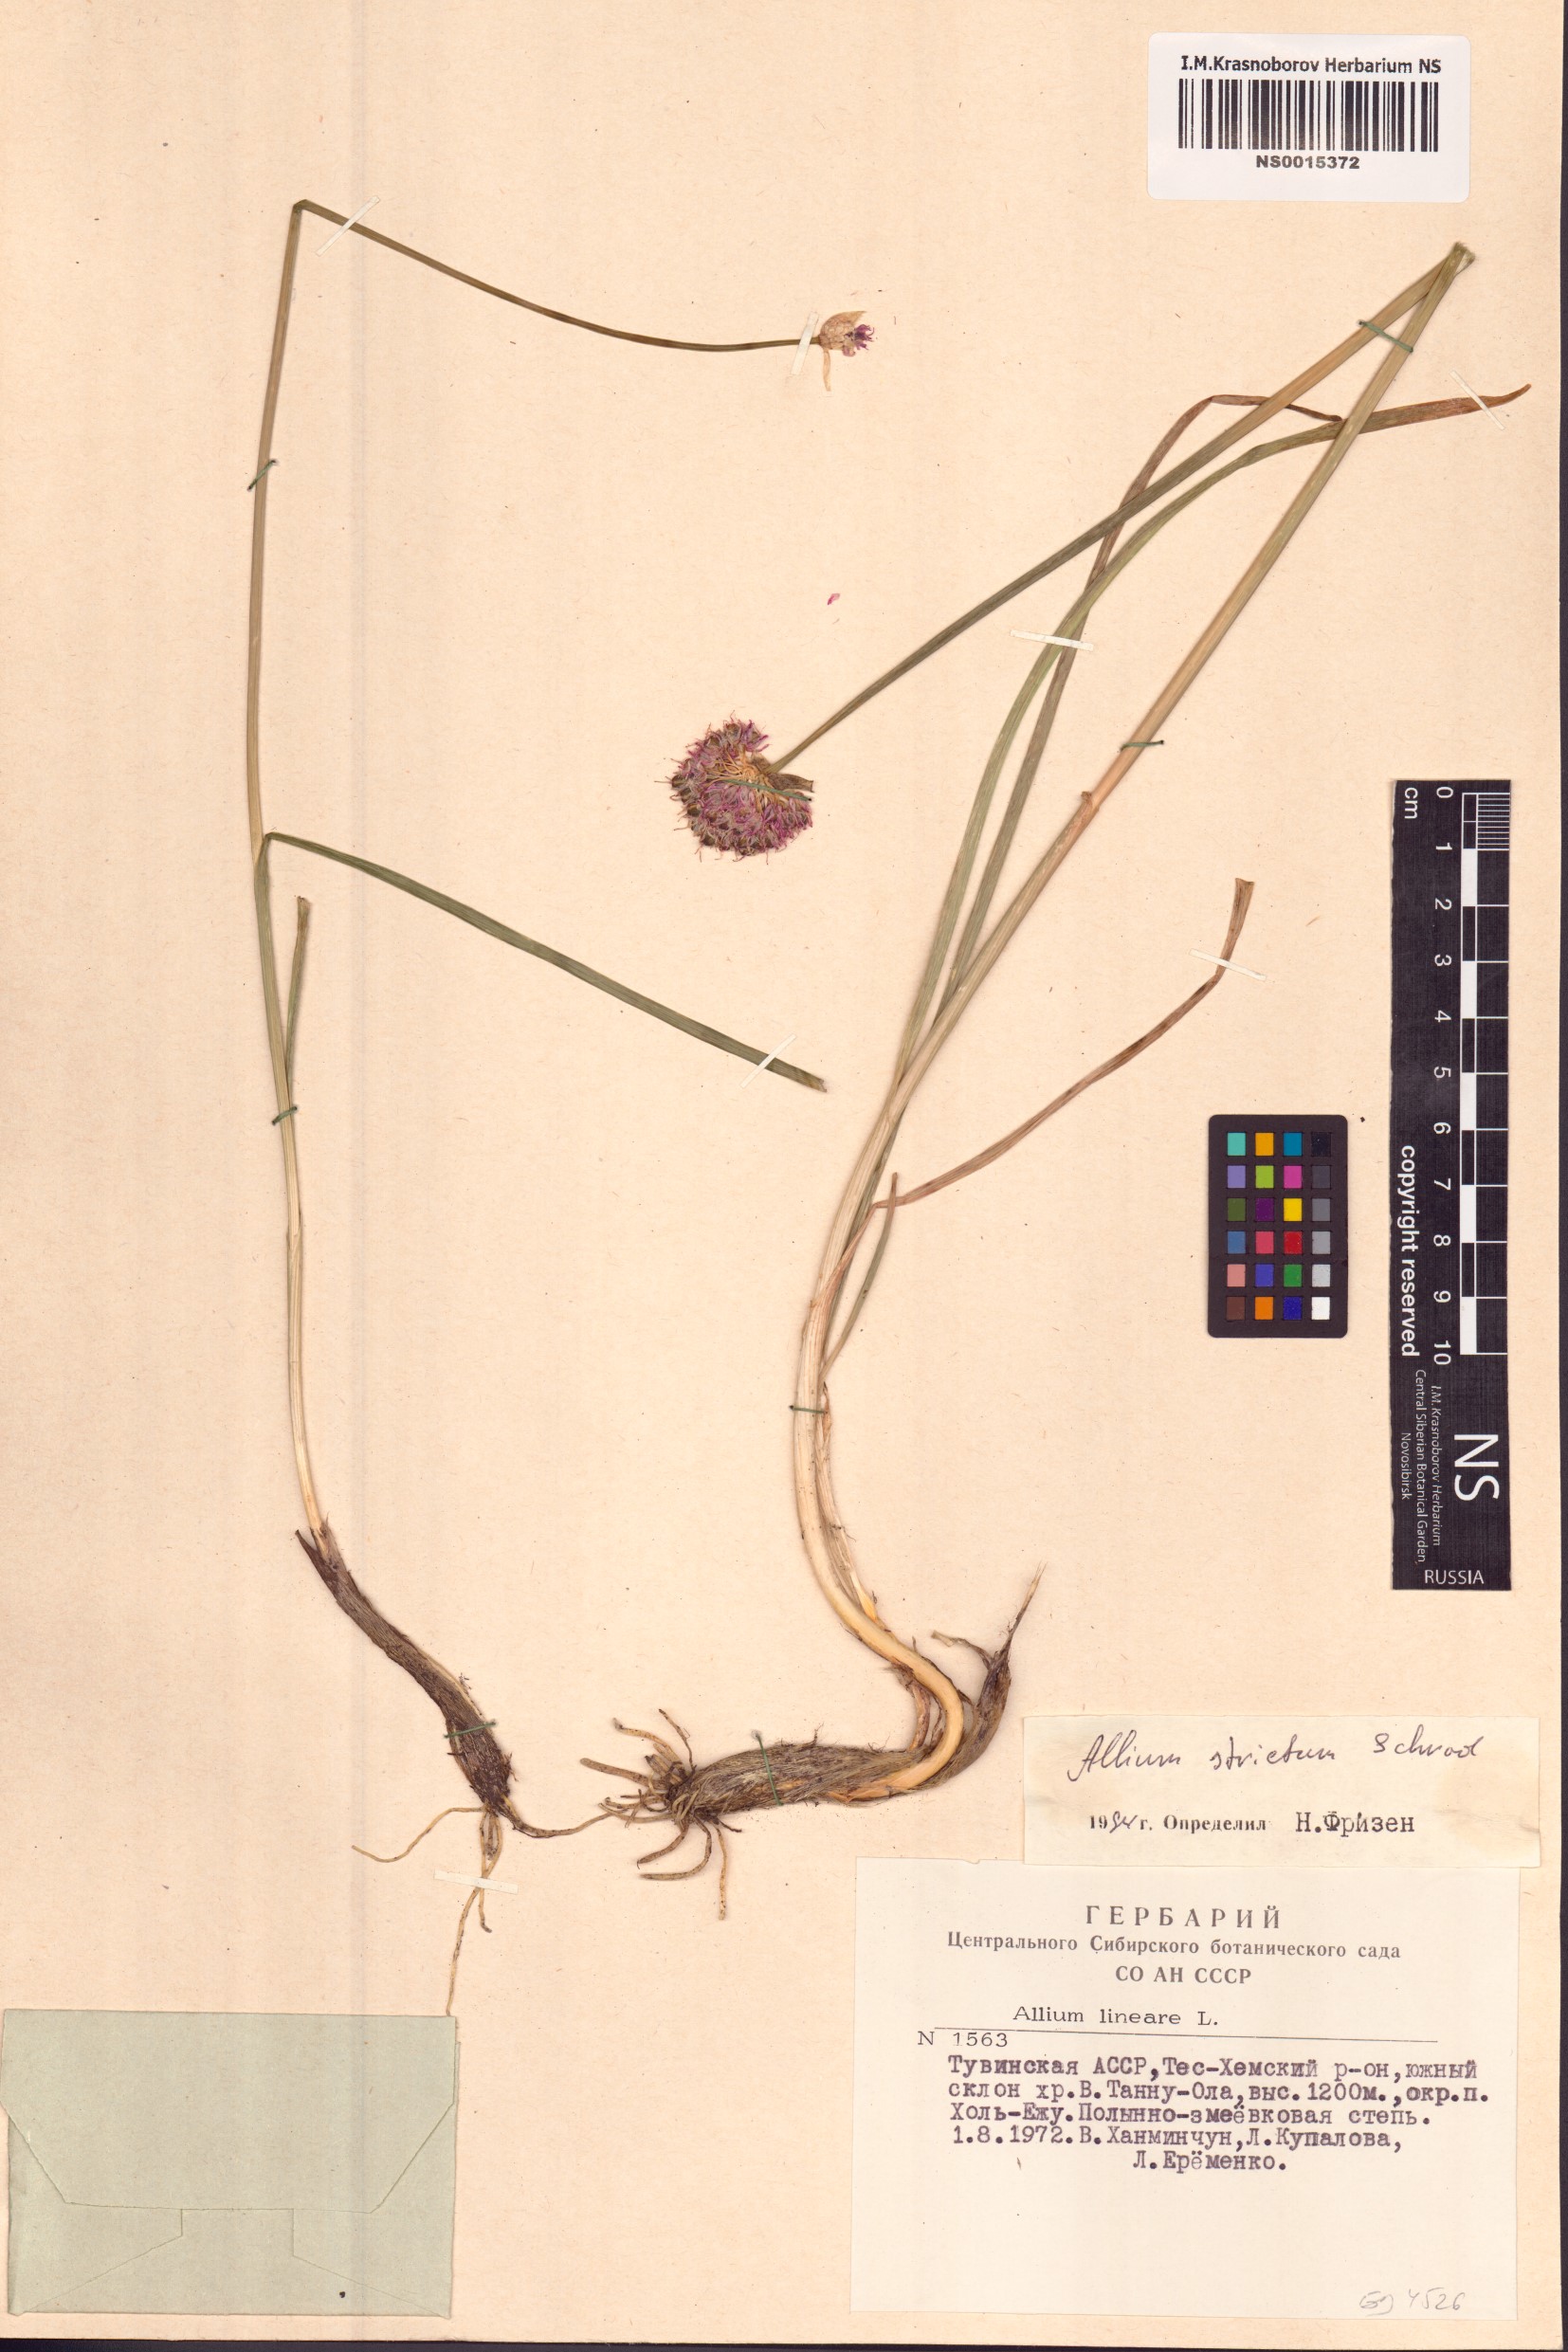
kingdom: Plantae
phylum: Tracheophyta
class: Liliopsida
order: Asparagales
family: Amaryllidaceae
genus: Allium
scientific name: Allium strictum
